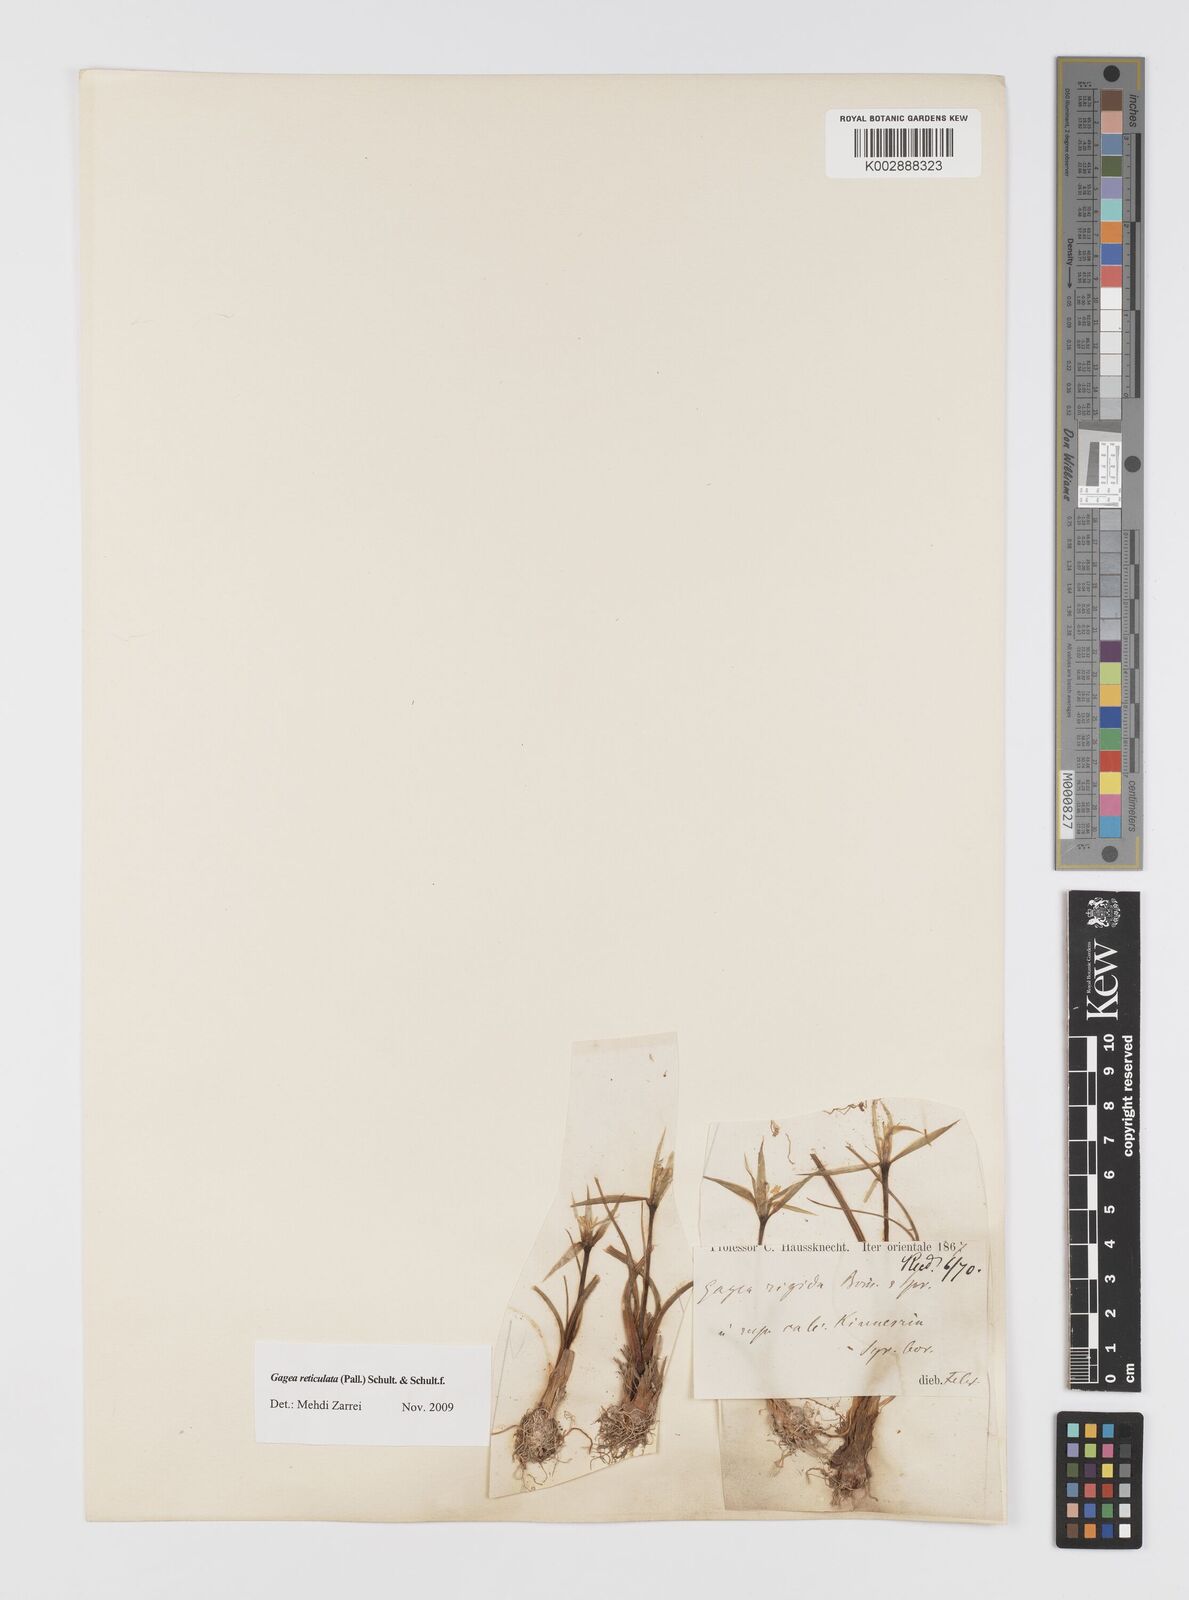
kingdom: Plantae
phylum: Tracheophyta
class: Liliopsida
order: Liliales
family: Liliaceae
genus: Gagea
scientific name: Gagea reticulata
